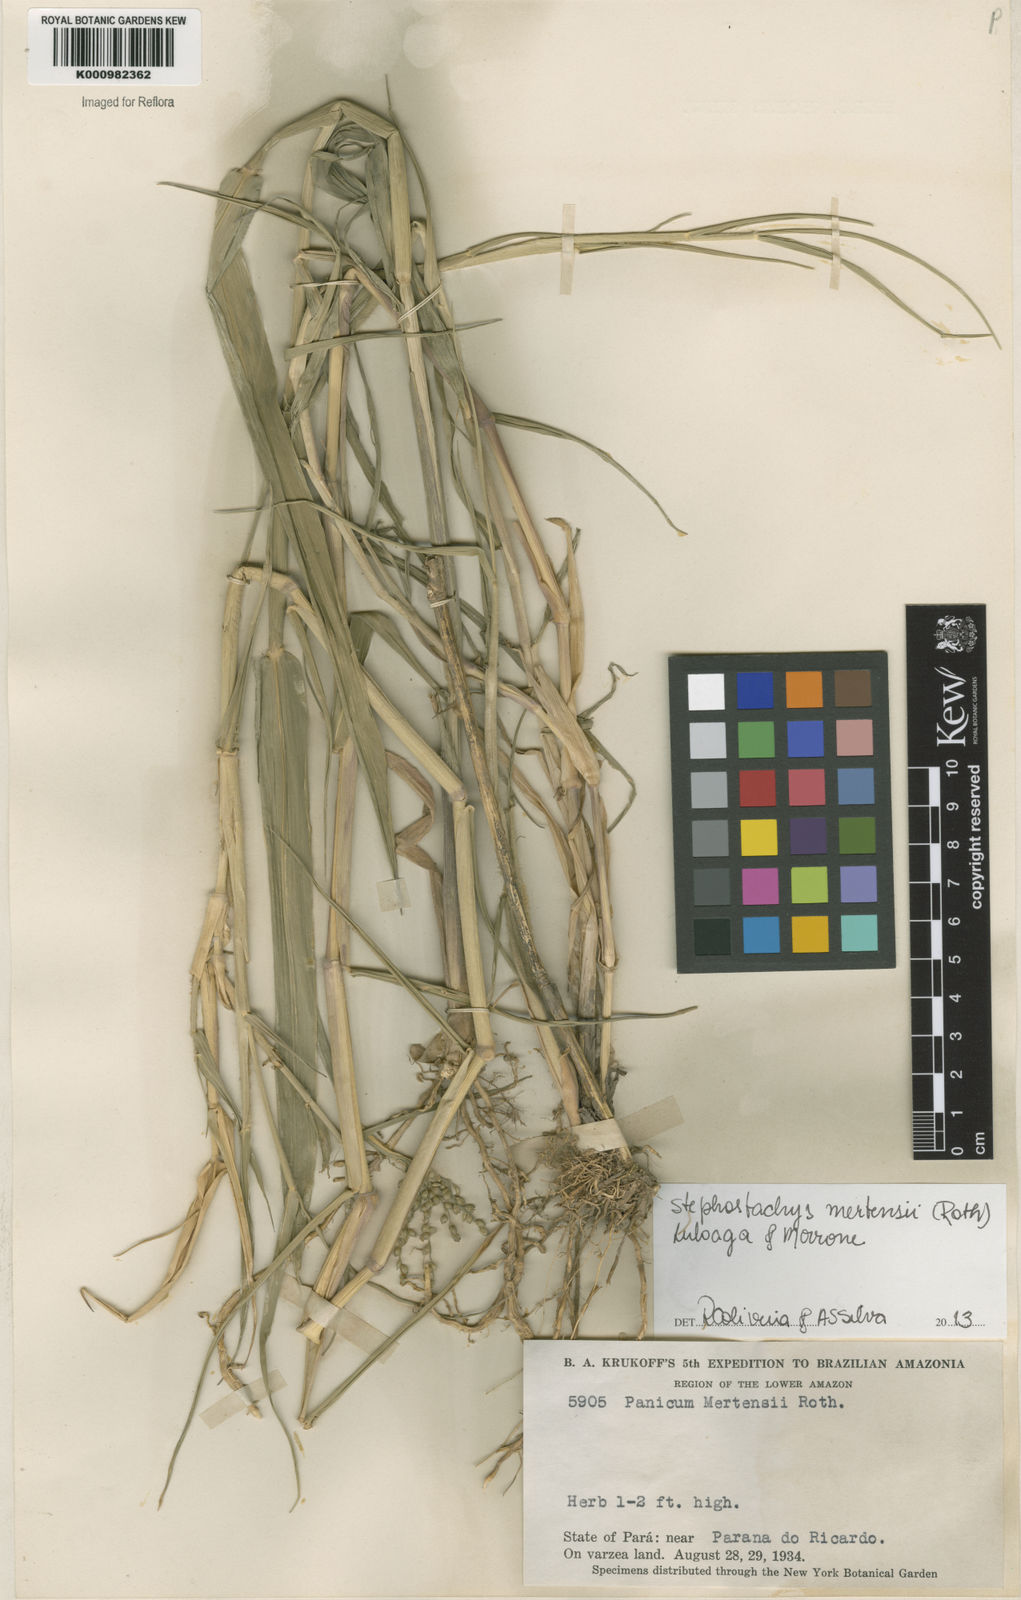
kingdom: Plantae
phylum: Tracheophyta
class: Liliopsida
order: Poales
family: Poaceae
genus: Stephostachys
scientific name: Stephostachys mertensii
